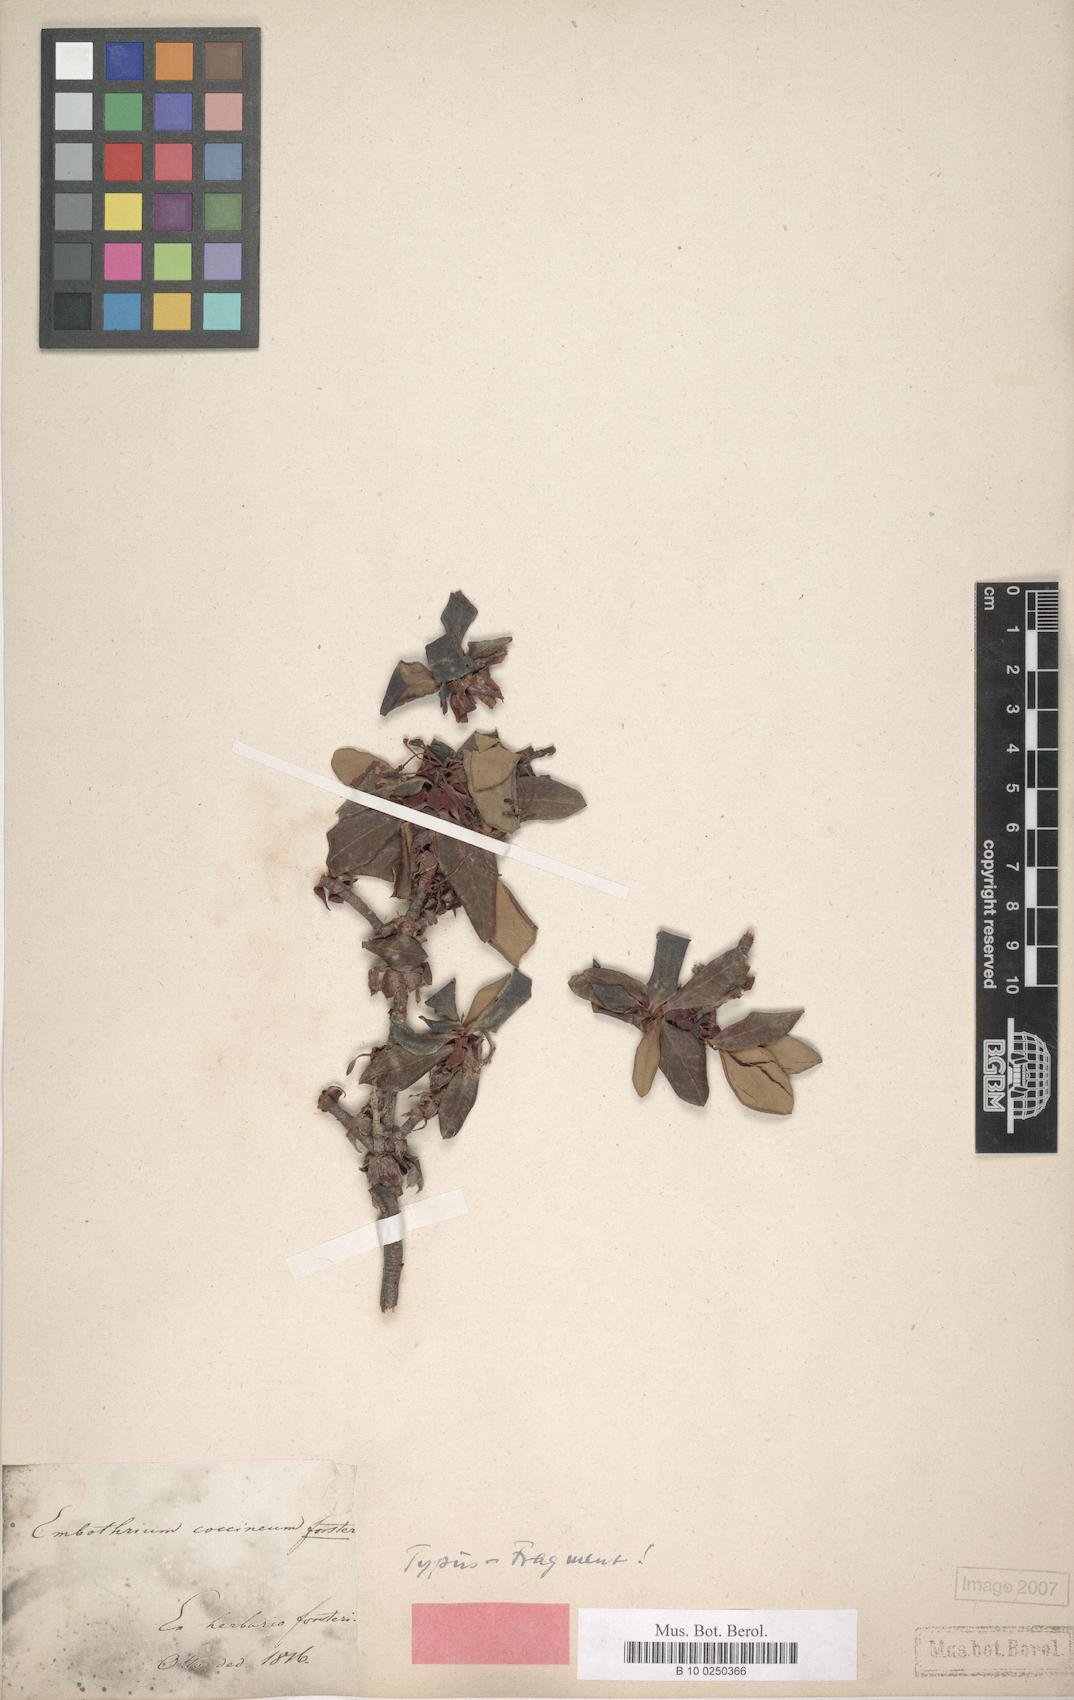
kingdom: Plantae
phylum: Tracheophyta
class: Magnoliopsida
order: Proteales
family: Proteaceae
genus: Embothrium
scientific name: Embothrium coccineum
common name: Chilean firebush
